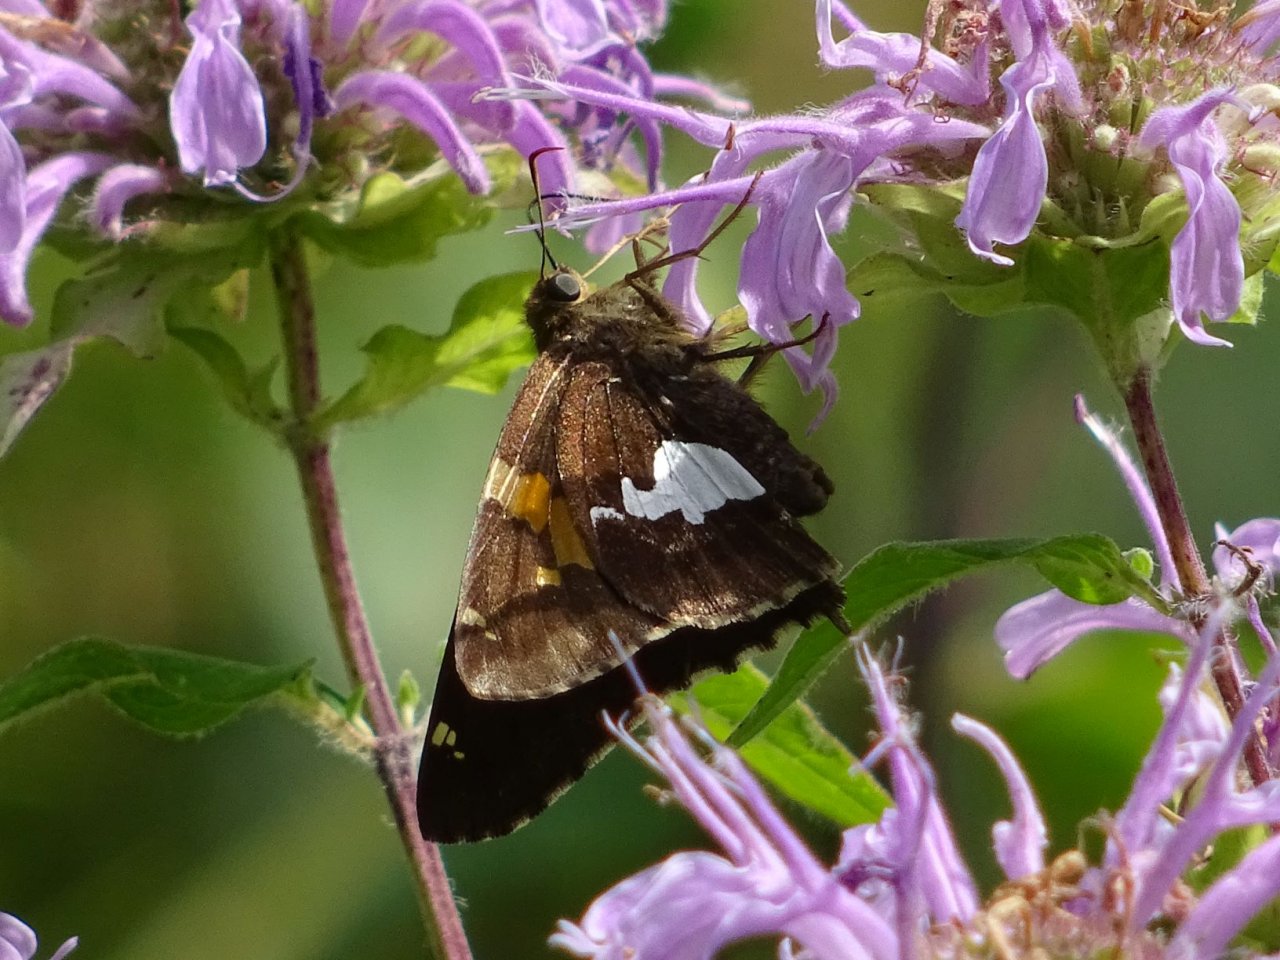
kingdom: Animalia
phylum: Arthropoda
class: Insecta
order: Lepidoptera
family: Hesperiidae
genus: Epargyreus
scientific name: Epargyreus clarus
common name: Silver-spotted Skipper
